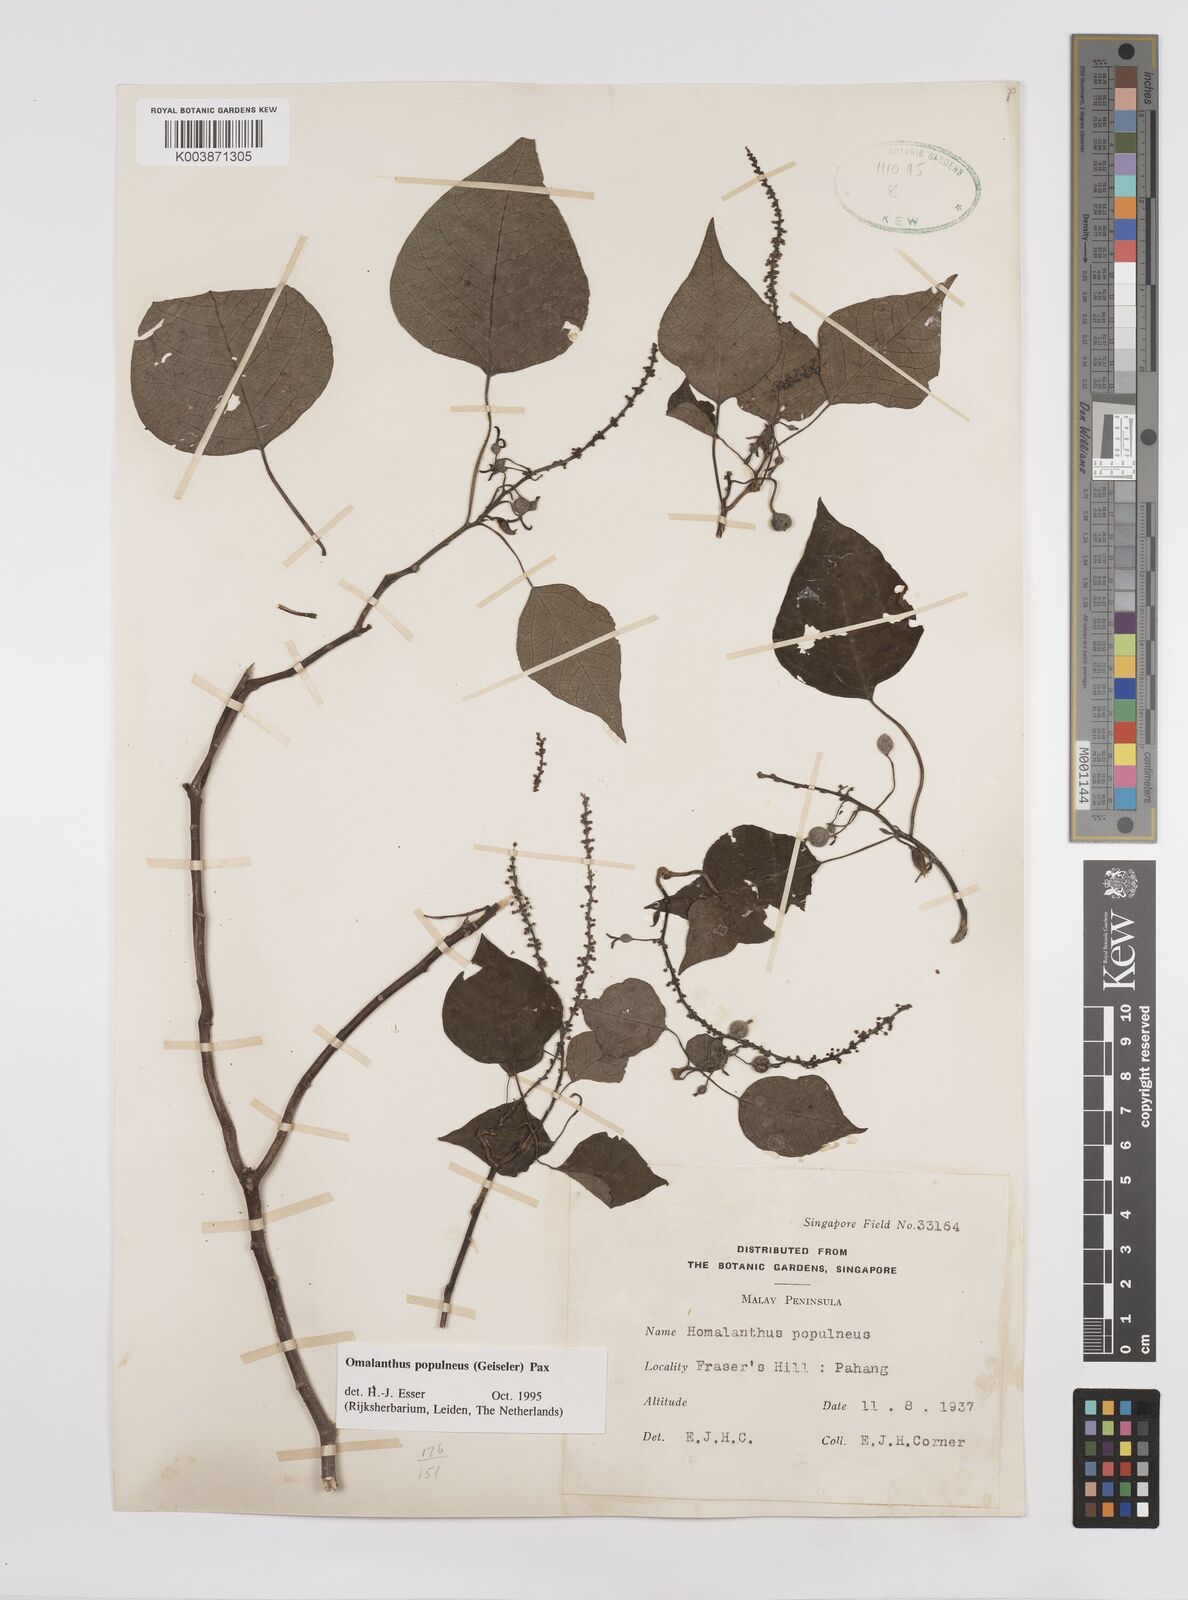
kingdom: Plantae
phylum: Tracheophyta
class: Magnoliopsida
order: Malpighiales
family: Euphorbiaceae
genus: Homalanthus
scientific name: Homalanthus populneus
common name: Spurge
